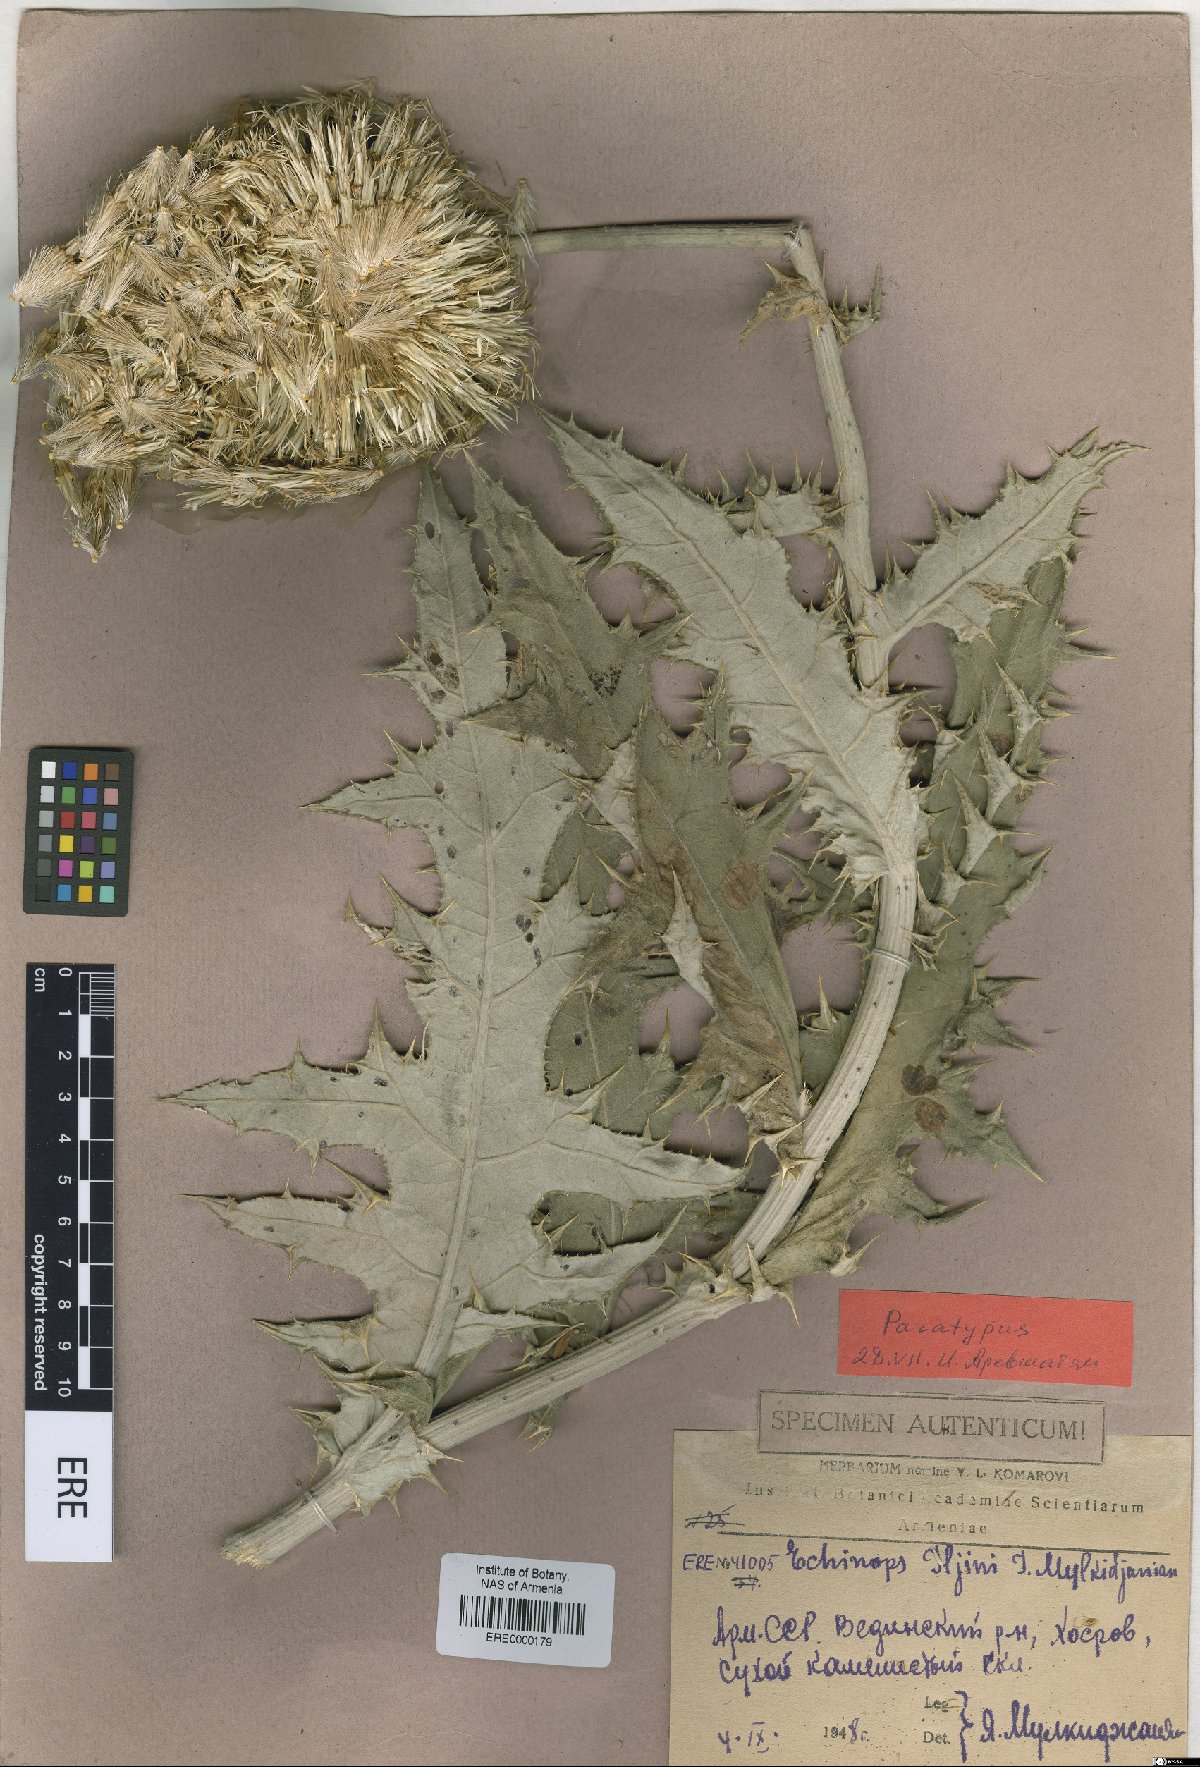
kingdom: Plantae
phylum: Tracheophyta
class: Magnoliopsida
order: Asterales
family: Asteraceae
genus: Echinops
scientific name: Echinops transcaucasicus
